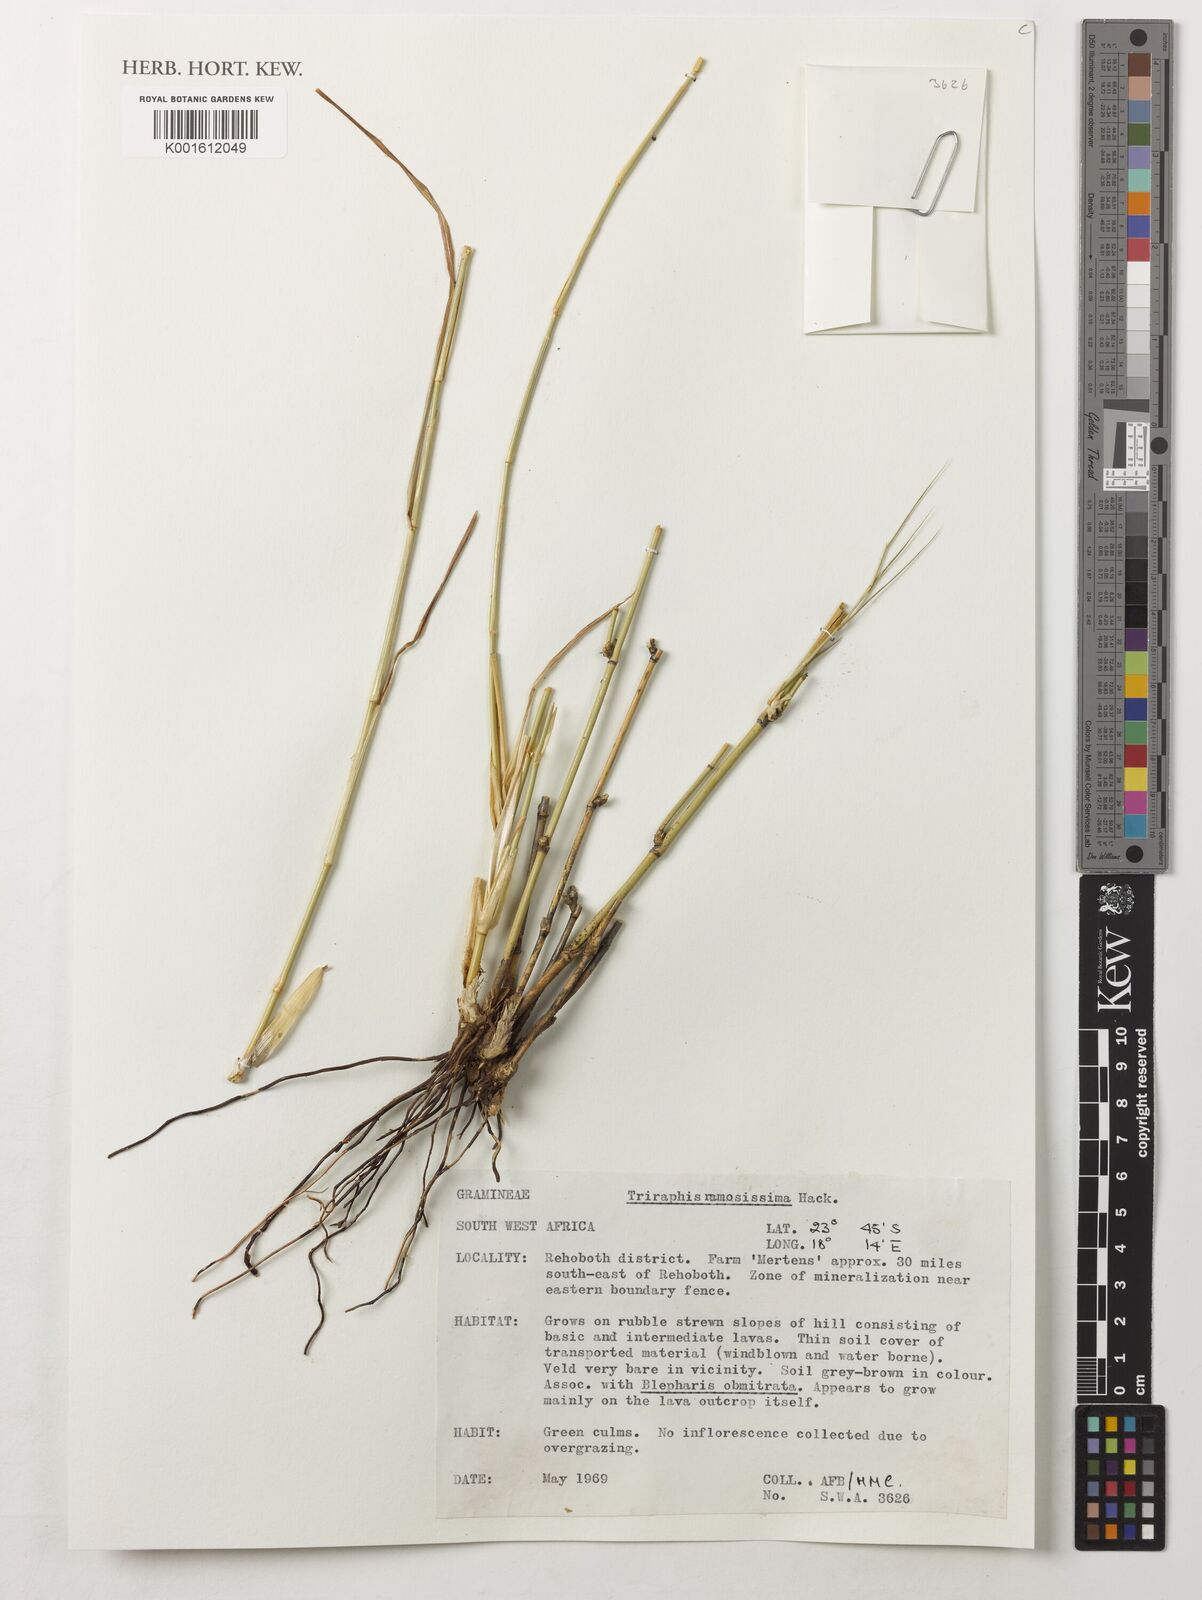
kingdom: Plantae
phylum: Tracheophyta
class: Liliopsida
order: Poales
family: Poaceae
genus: Triraphis
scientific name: Triraphis ramosissima
